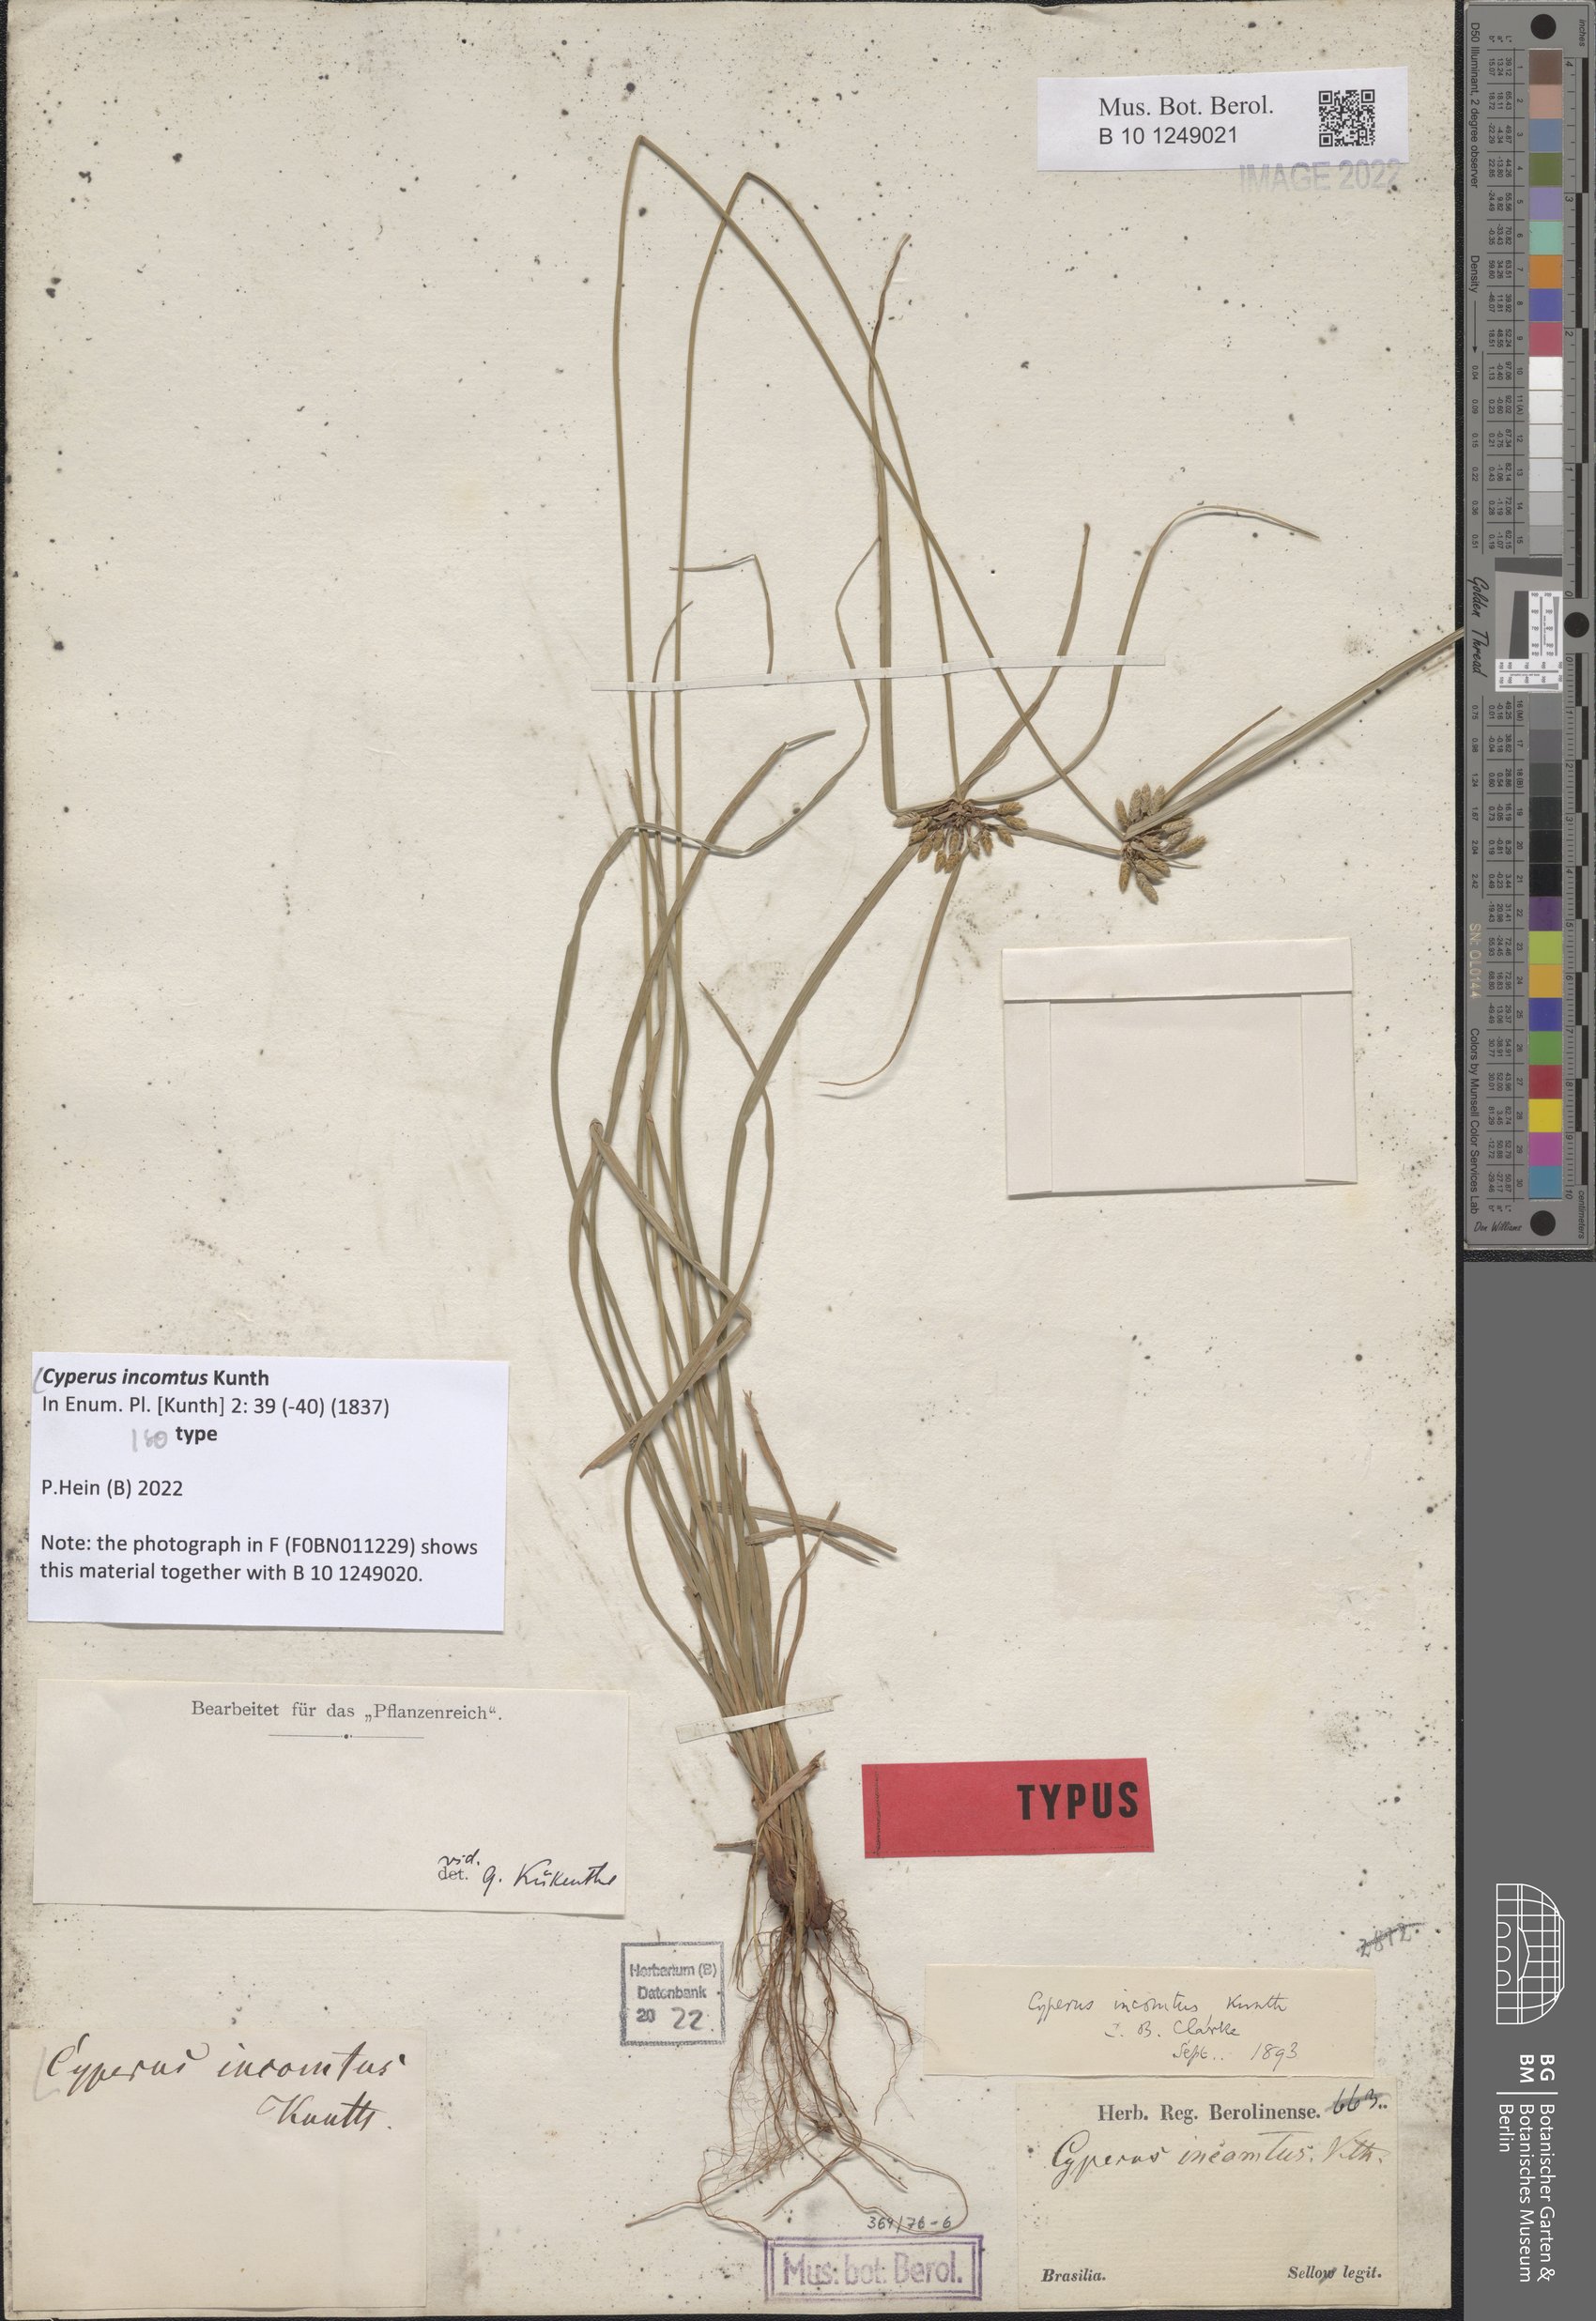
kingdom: Plantae
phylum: Tracheophyta
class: Liliopsida
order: Poales
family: Cyperaceae
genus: Cyperus
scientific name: Cyperus incomtus
